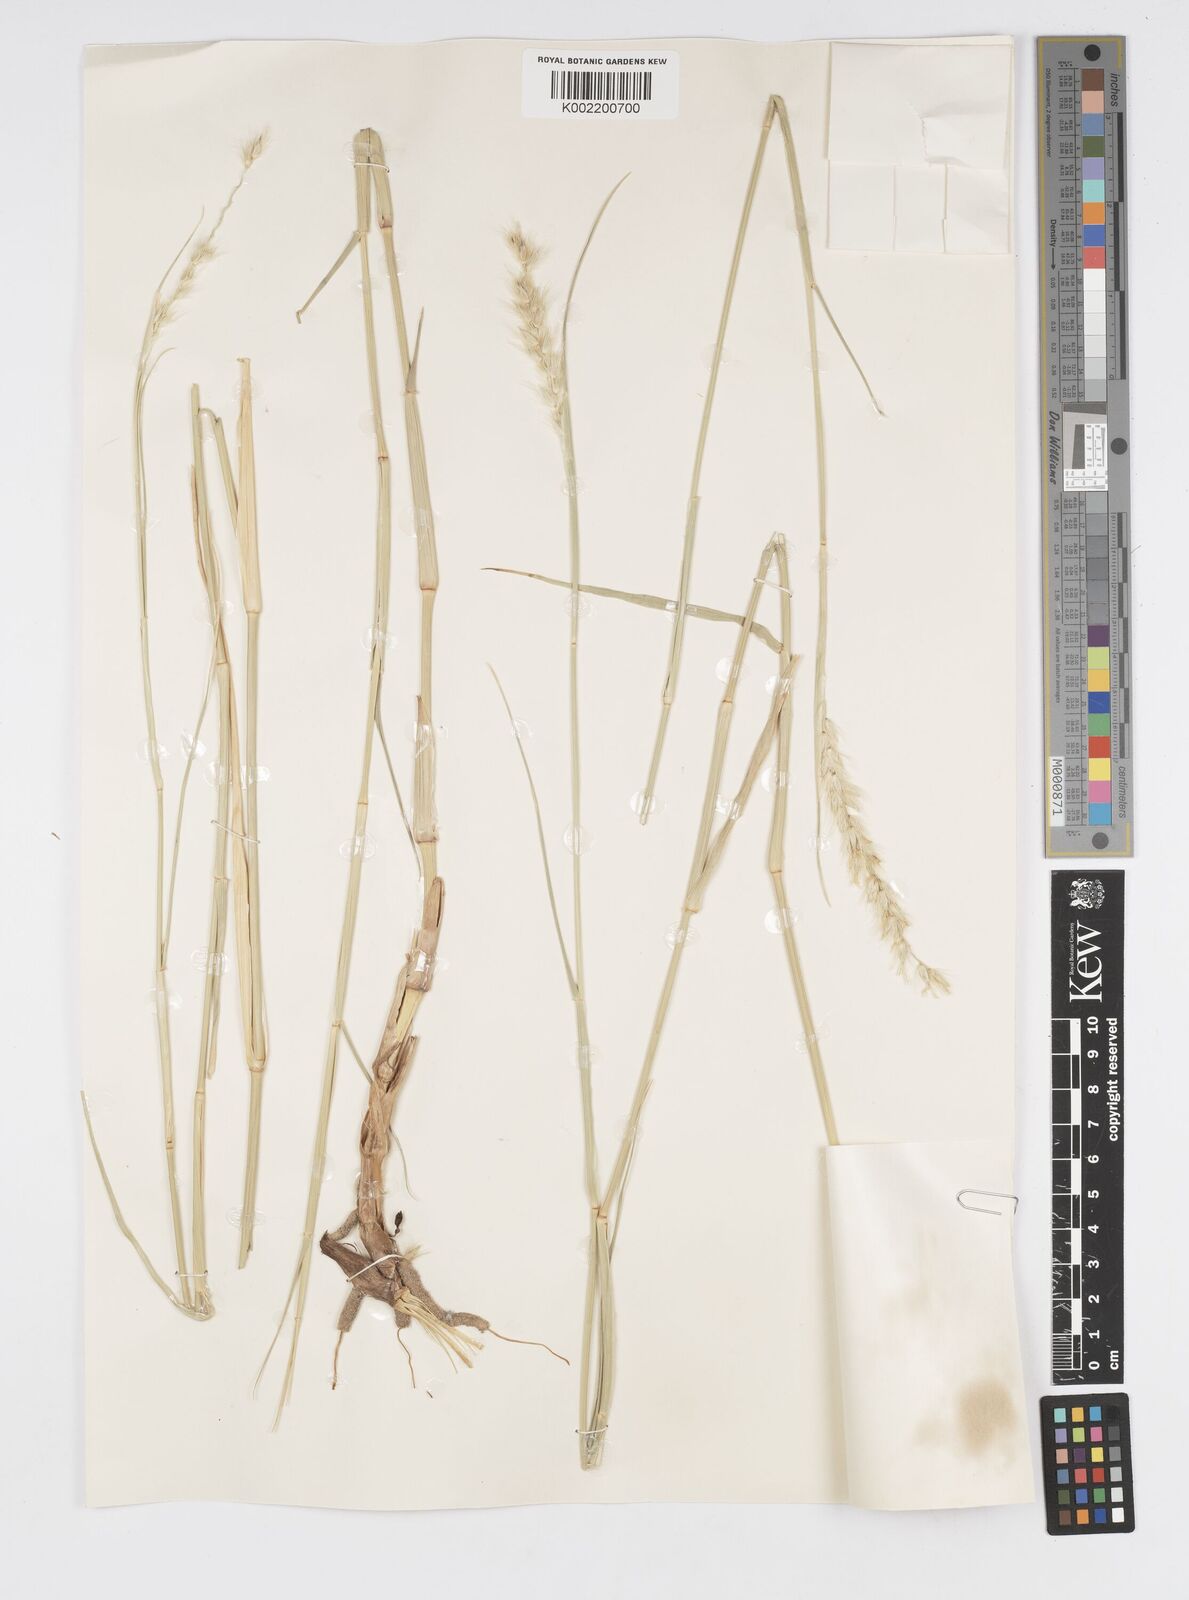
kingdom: Plantae
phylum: Tracheophyta
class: Liliopsida
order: Poales
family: Poaceae
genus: Cenchrus
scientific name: Cenchrus divisus
